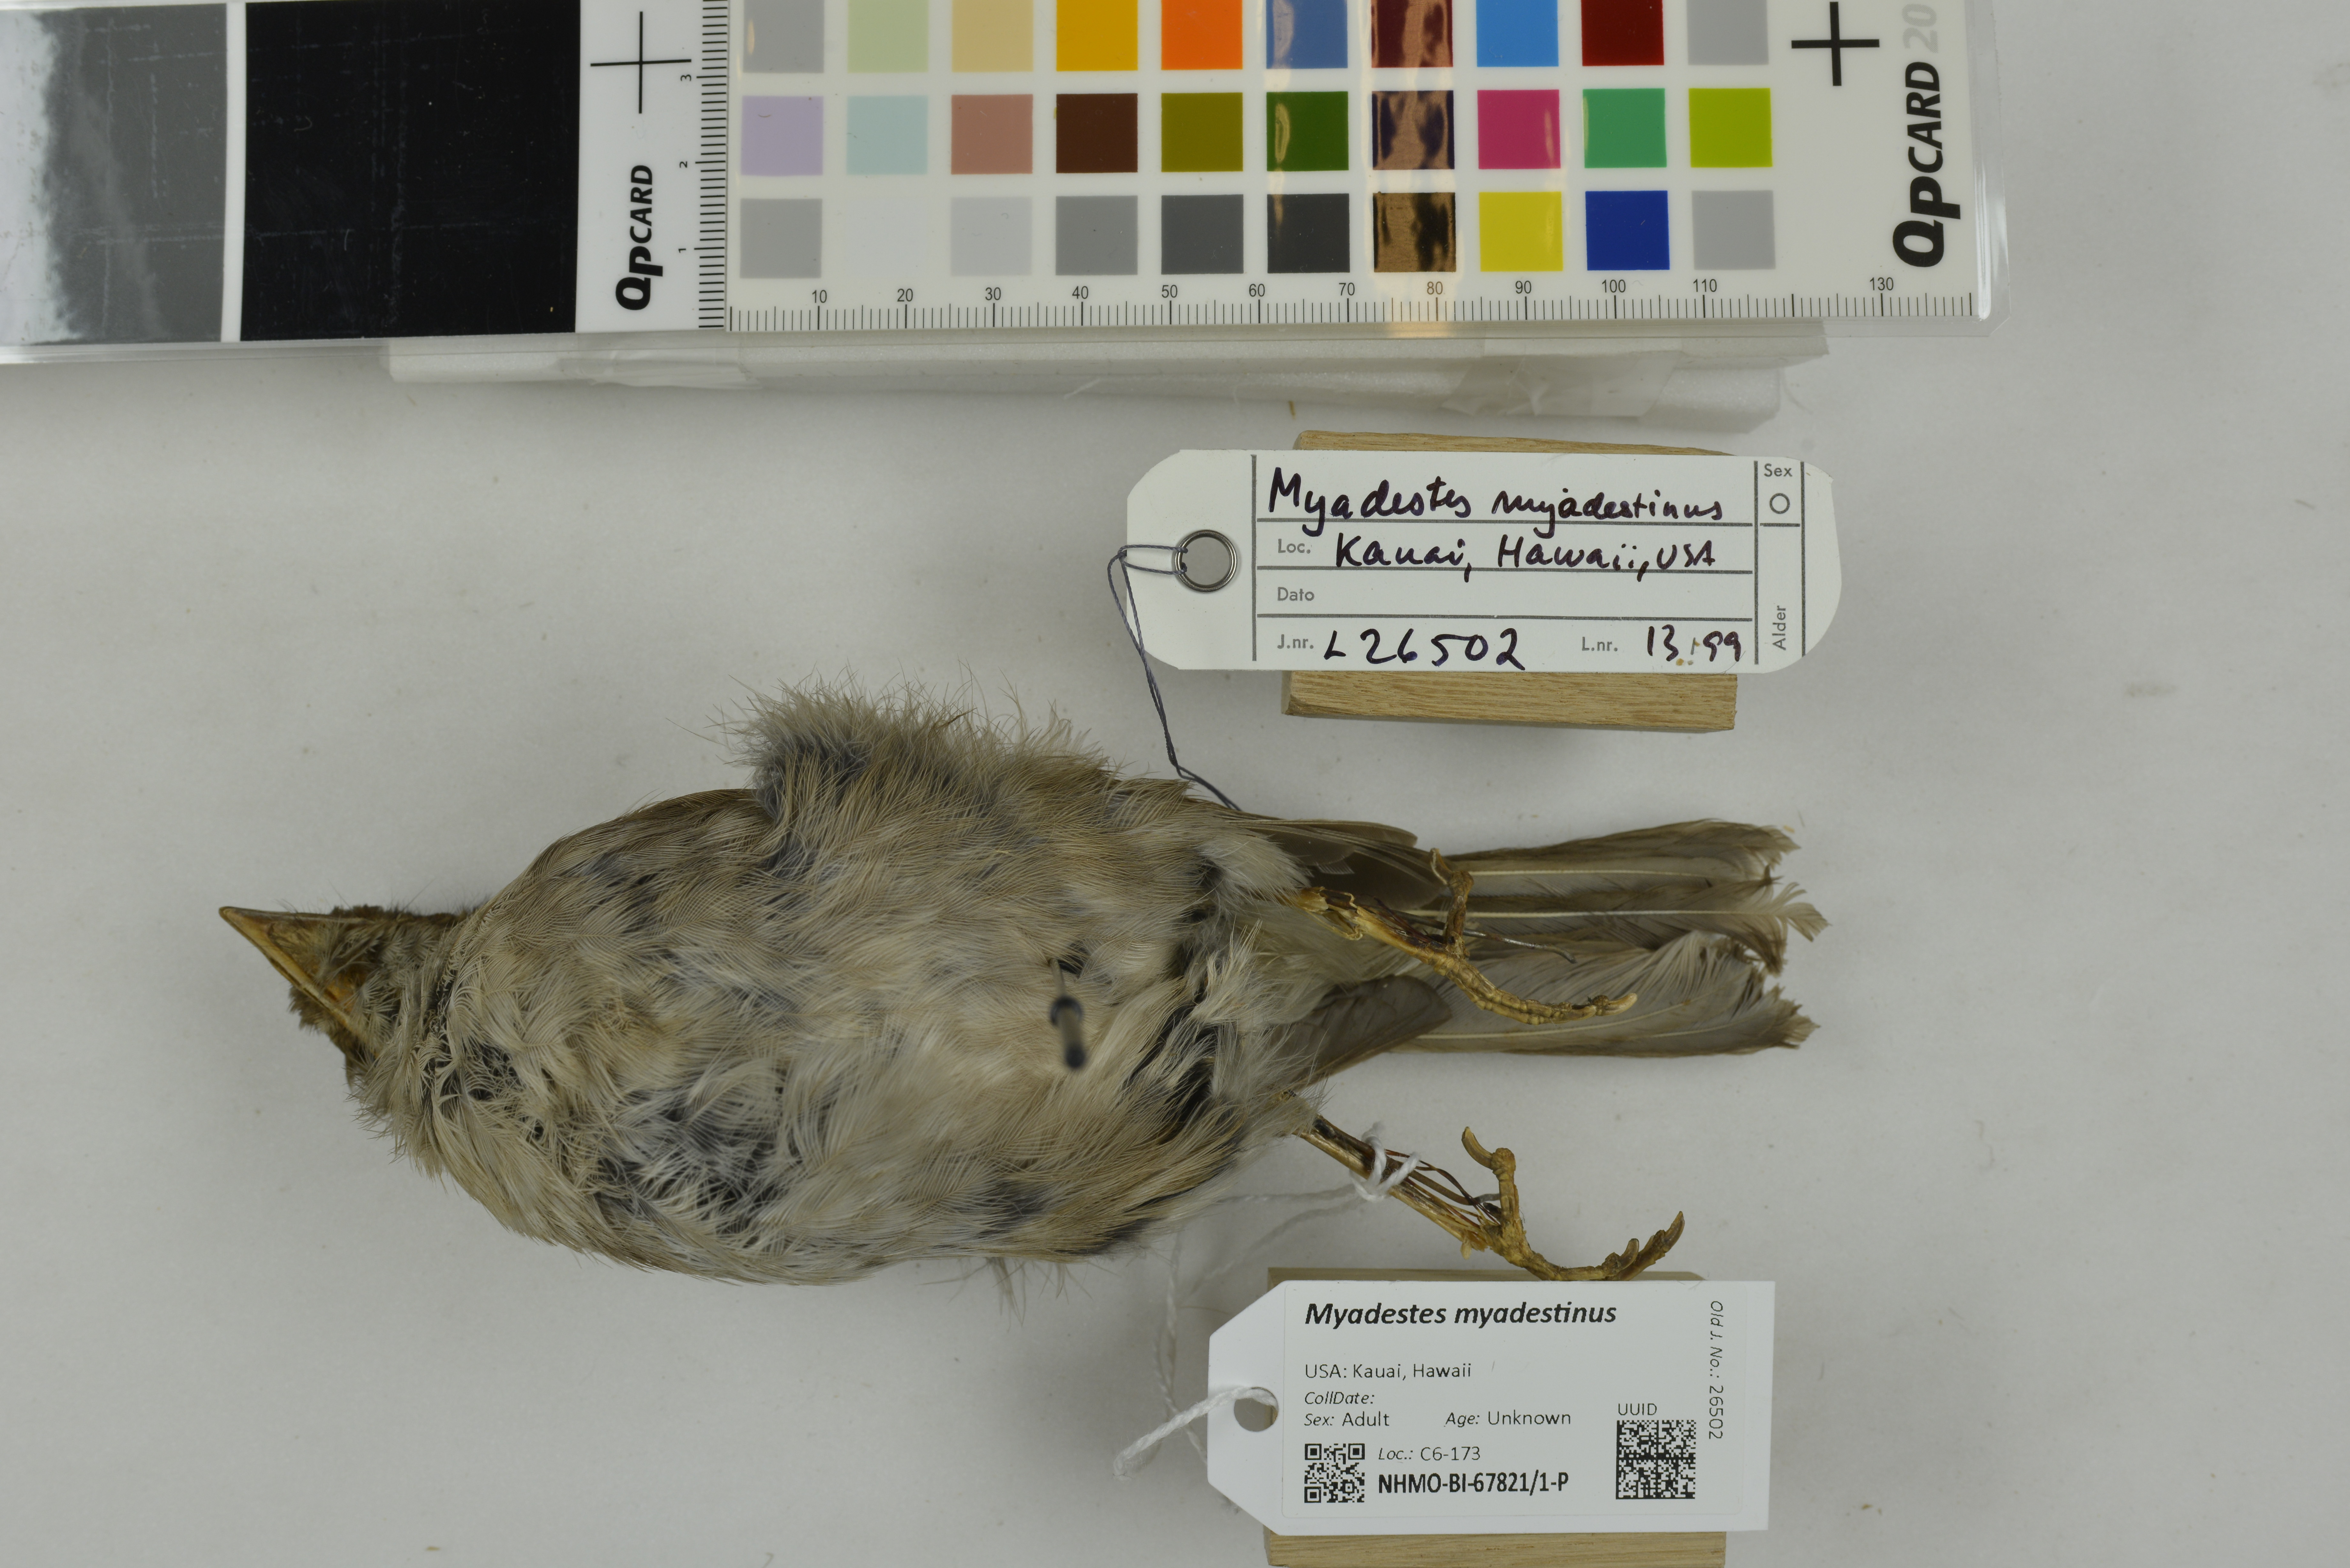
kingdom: Animalia
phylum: Chordata
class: Aves
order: Passeriformes
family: Turdidae
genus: Myadestes
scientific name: Myadestes myadestinus
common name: Kamao
